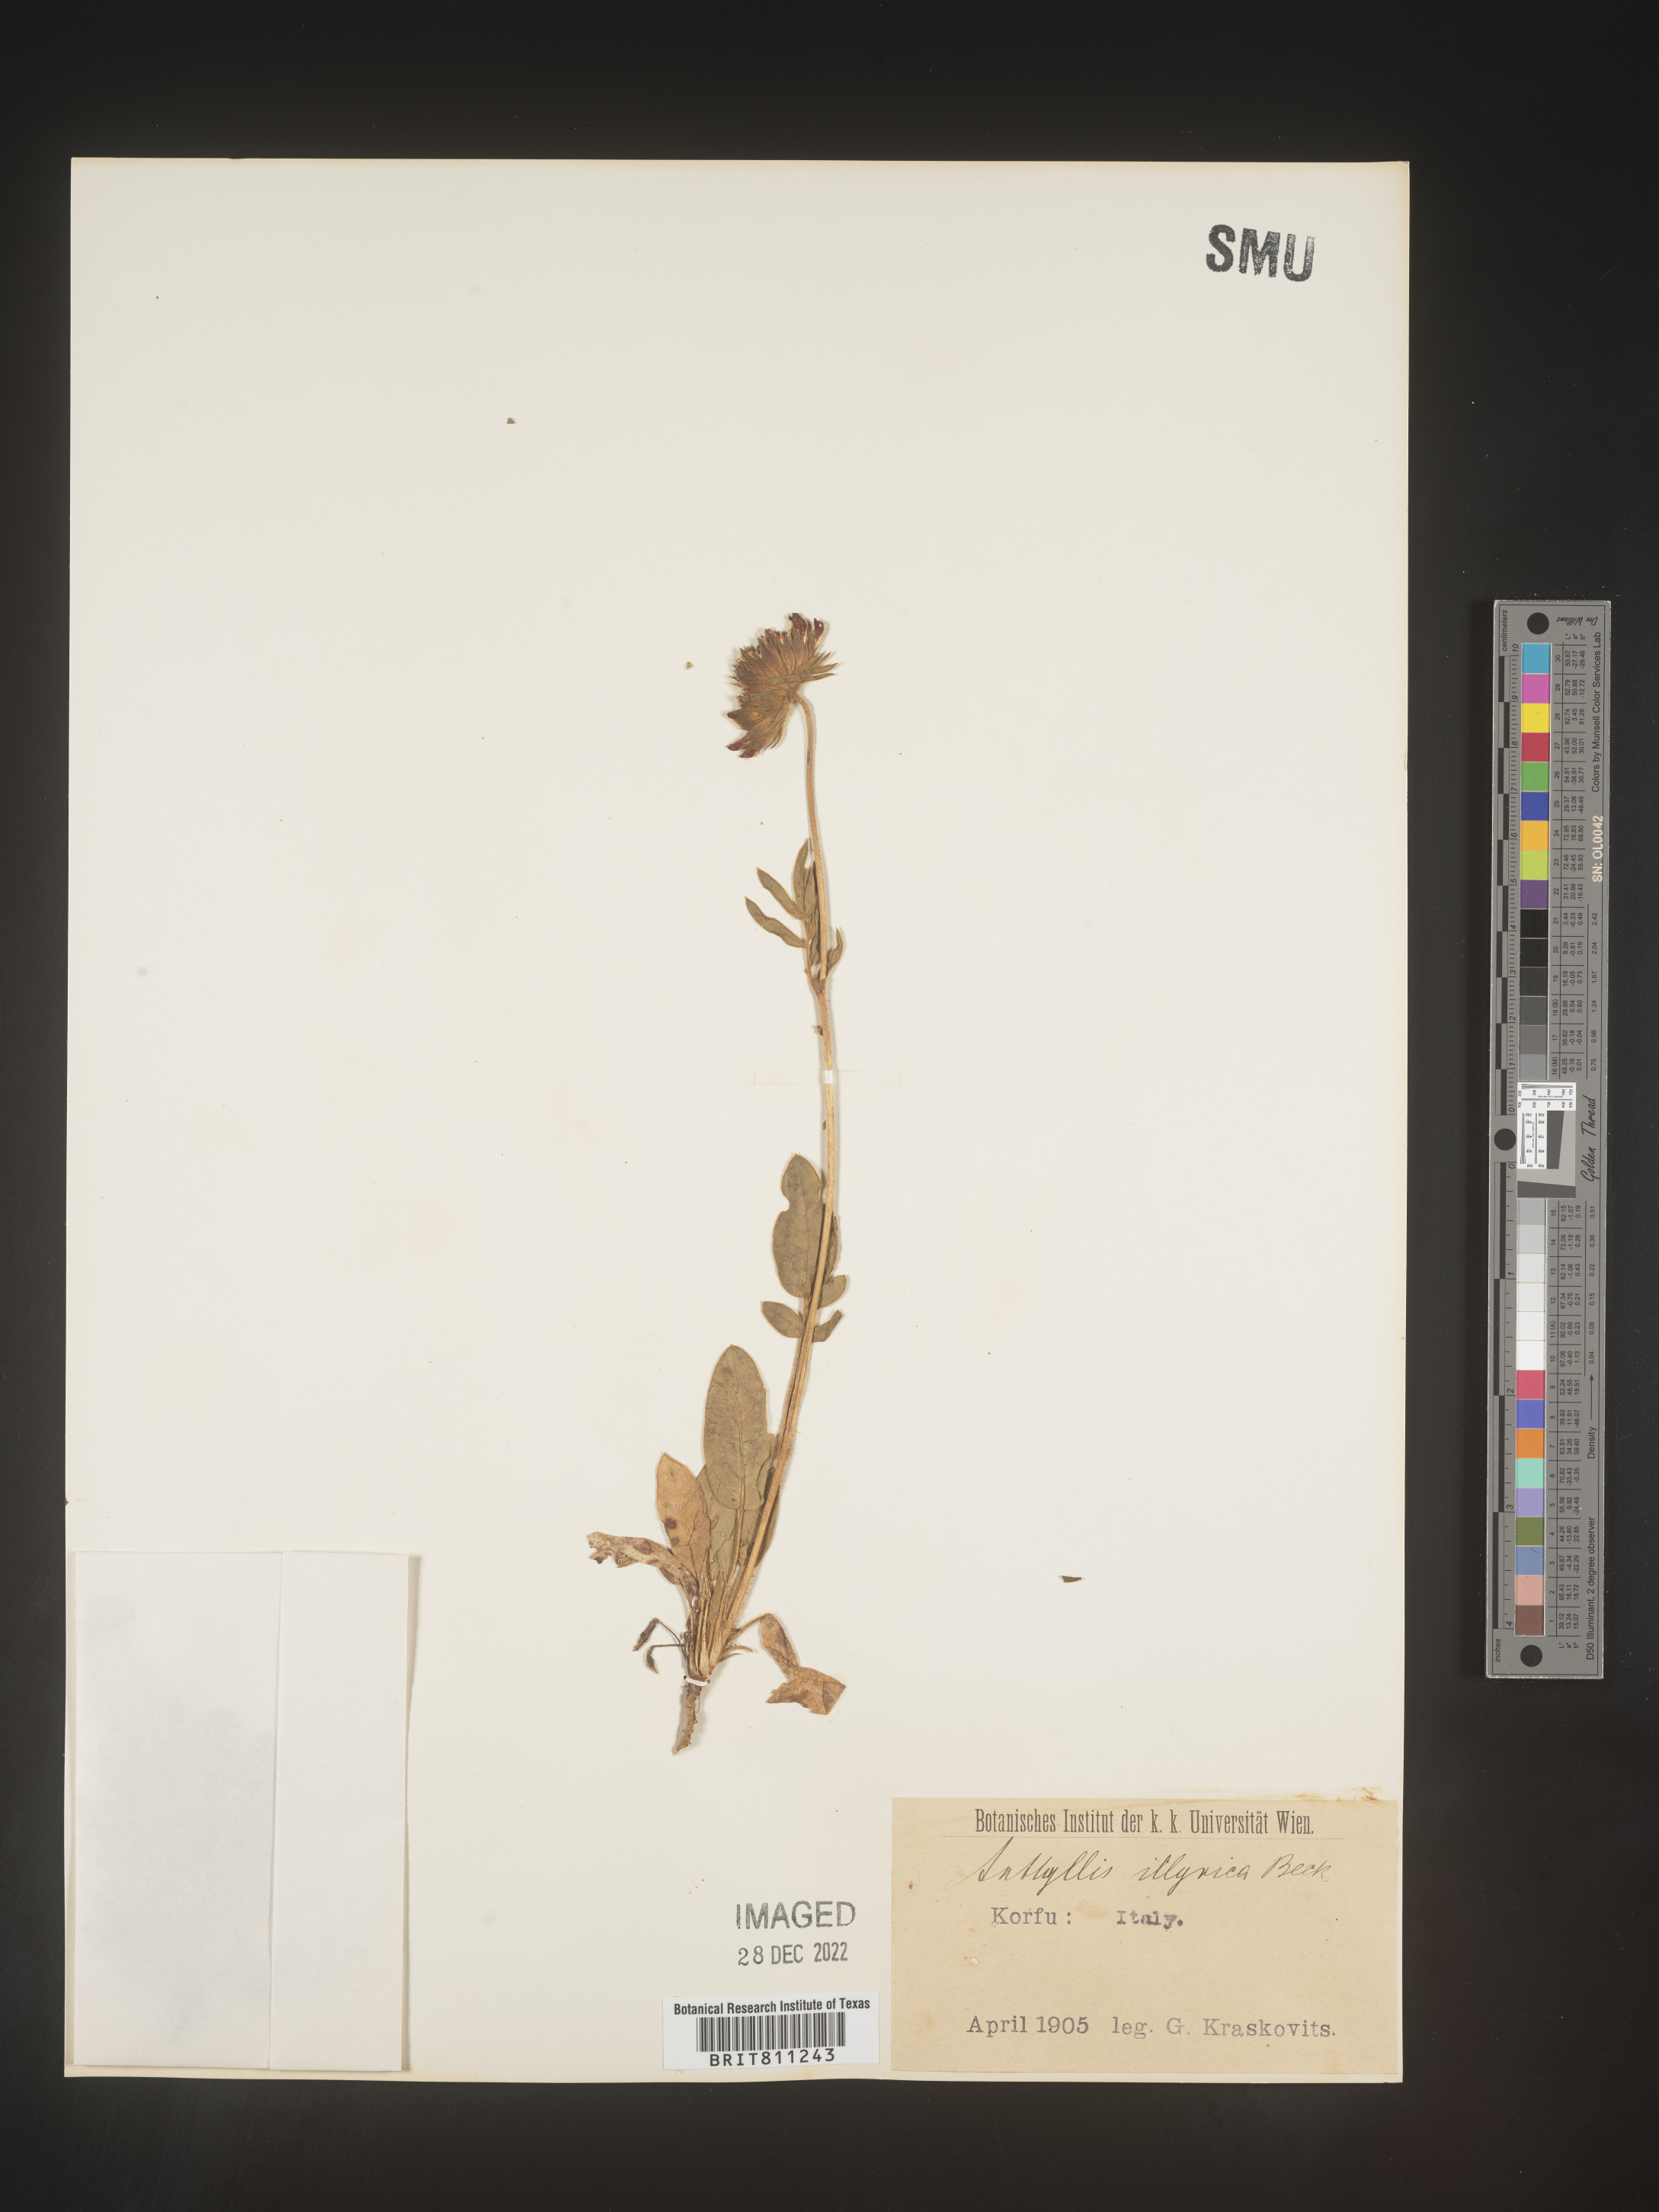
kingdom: Plantae
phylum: Tracheophyta
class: Magnoliopsida
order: Fabales
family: Fabaceae
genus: Anthyllis
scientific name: Anthyllis
